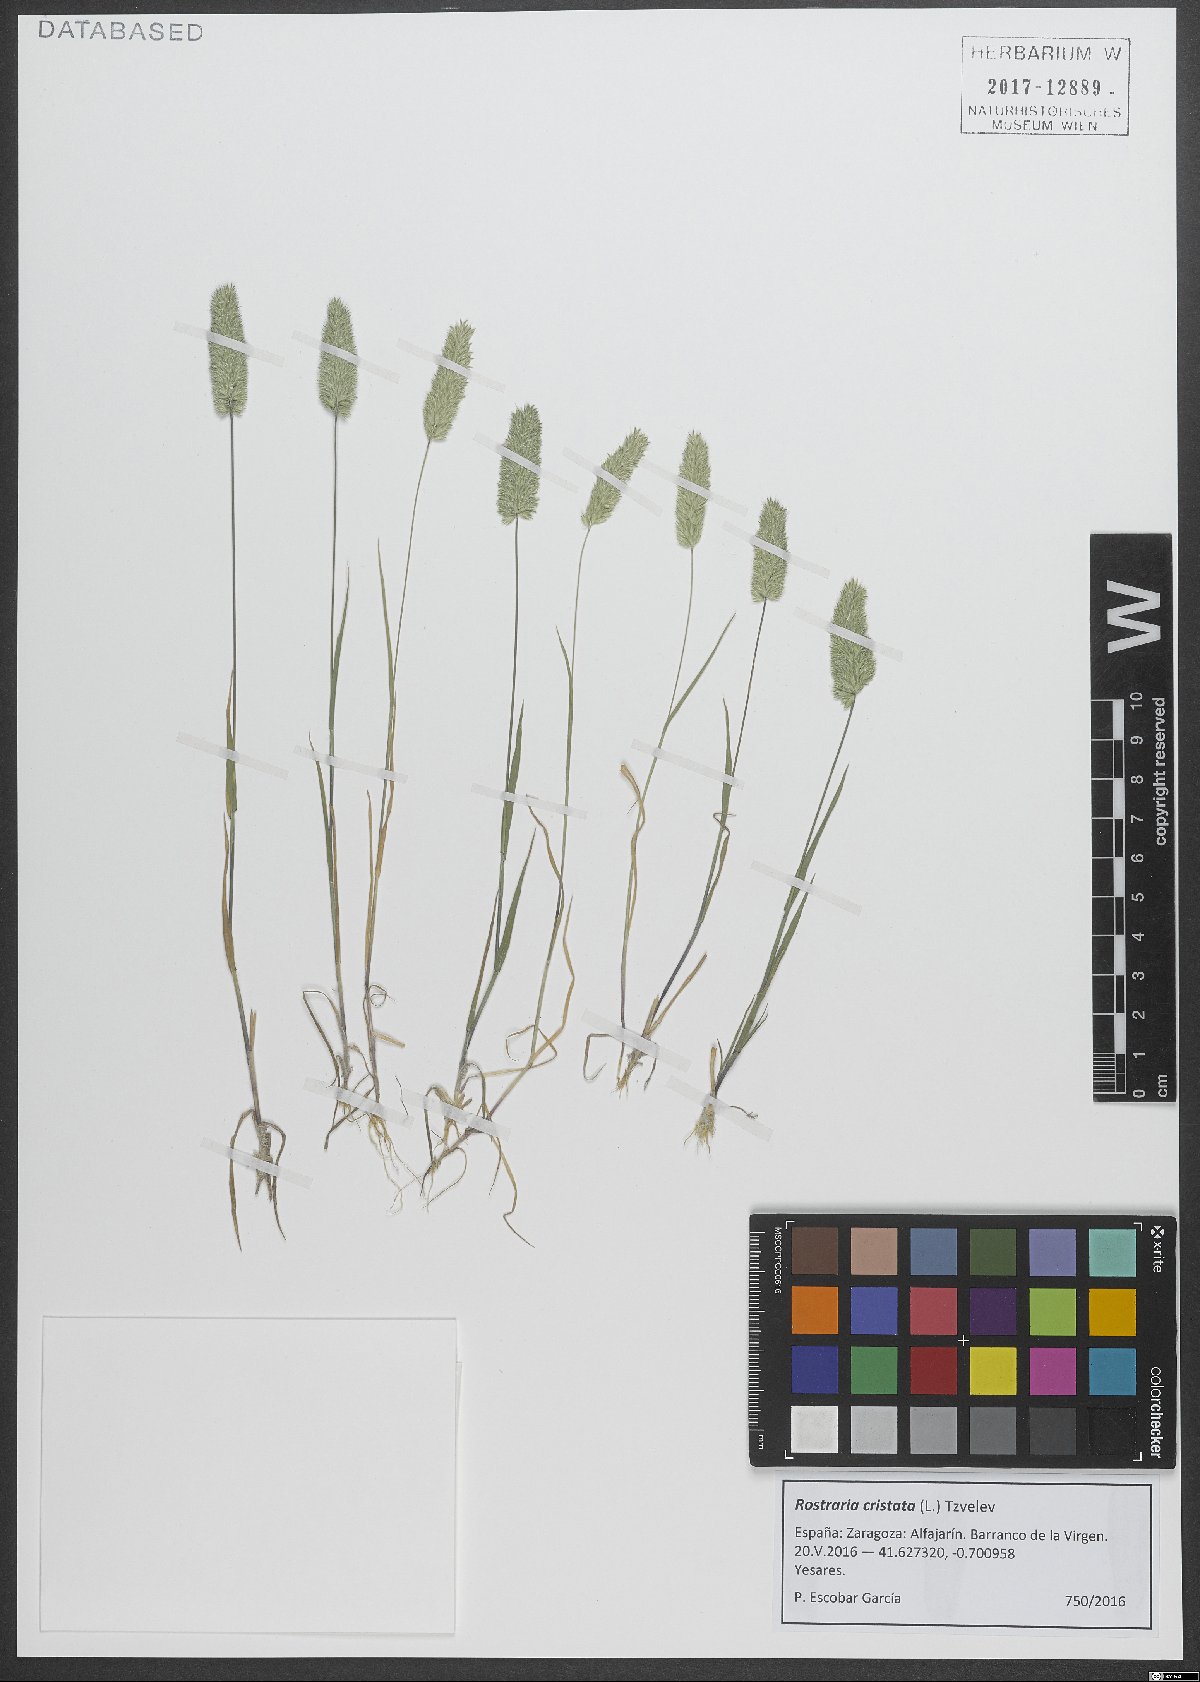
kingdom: Plantae
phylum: Tracheophyta
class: Liliopsida
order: Poales
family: Poaceae
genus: Rostraria
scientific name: Rostraria cristata
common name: Mediterranean hair-grass
